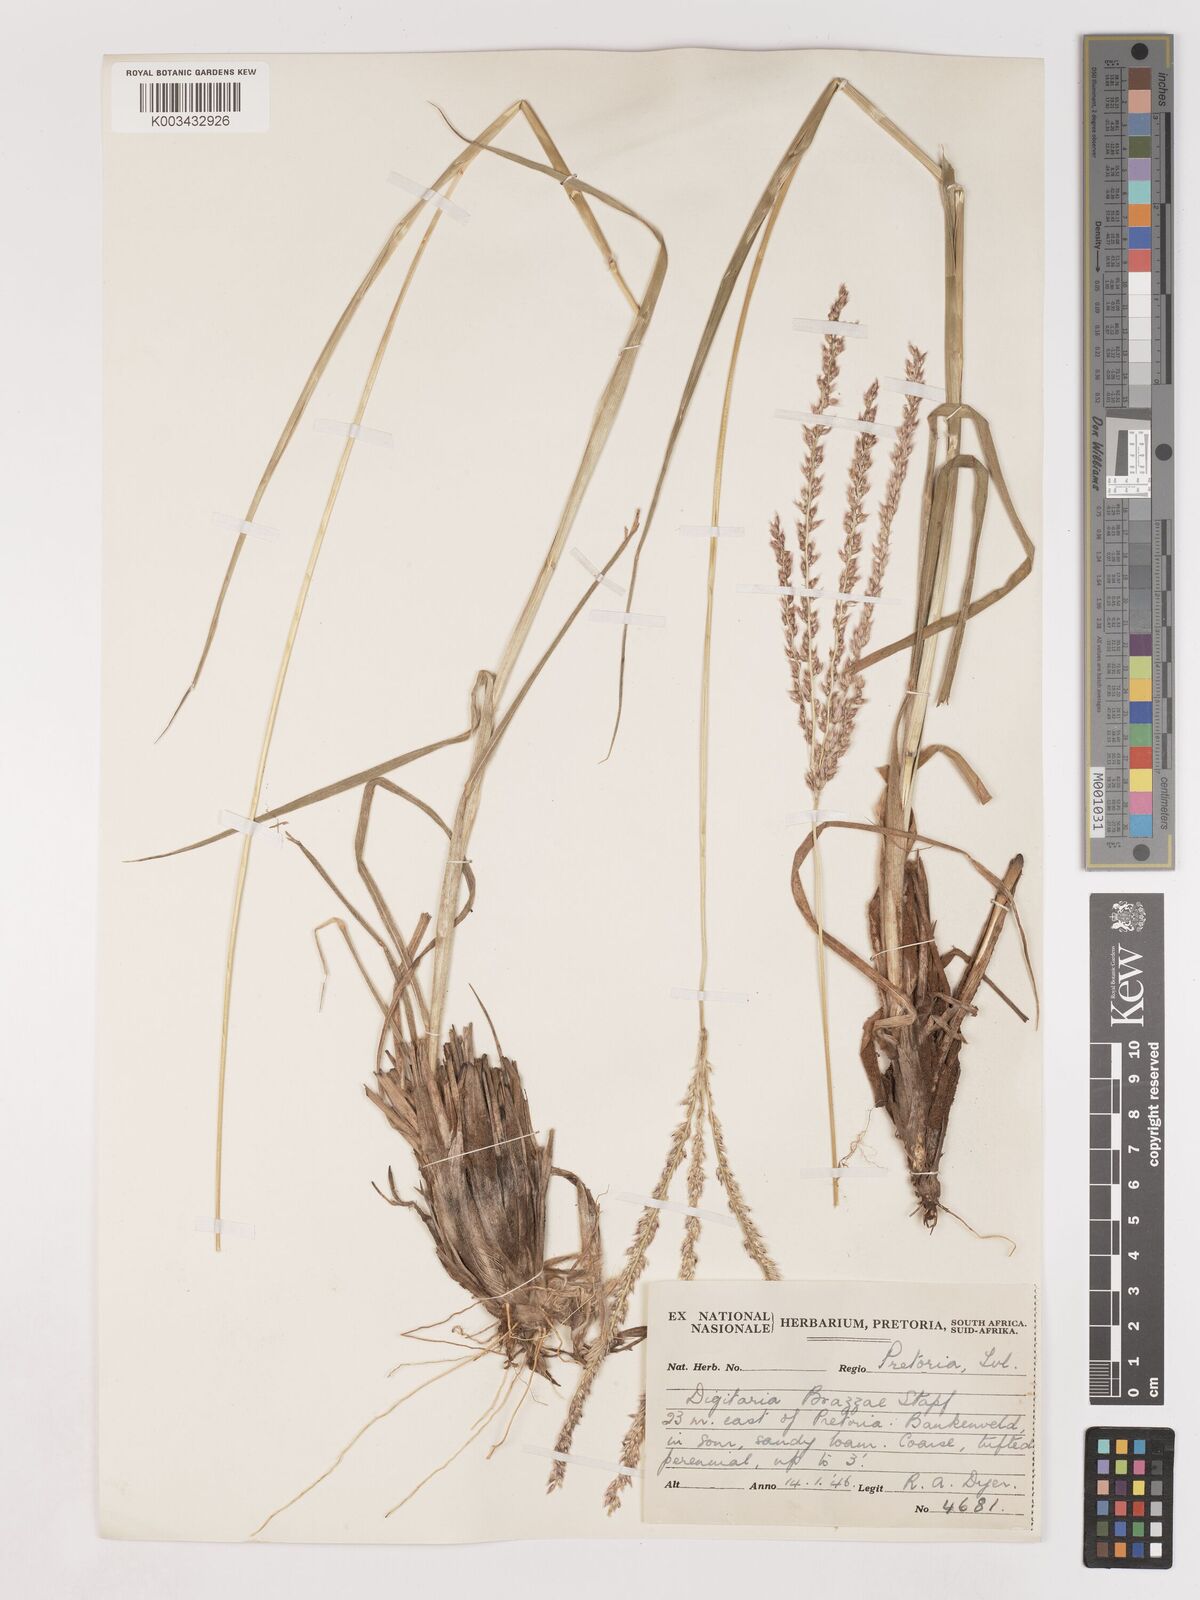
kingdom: Plantae
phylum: Tracheophyta
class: Liliopsida
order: Poales
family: Poaceae
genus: Digitaria
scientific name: Digitaria brazzae
